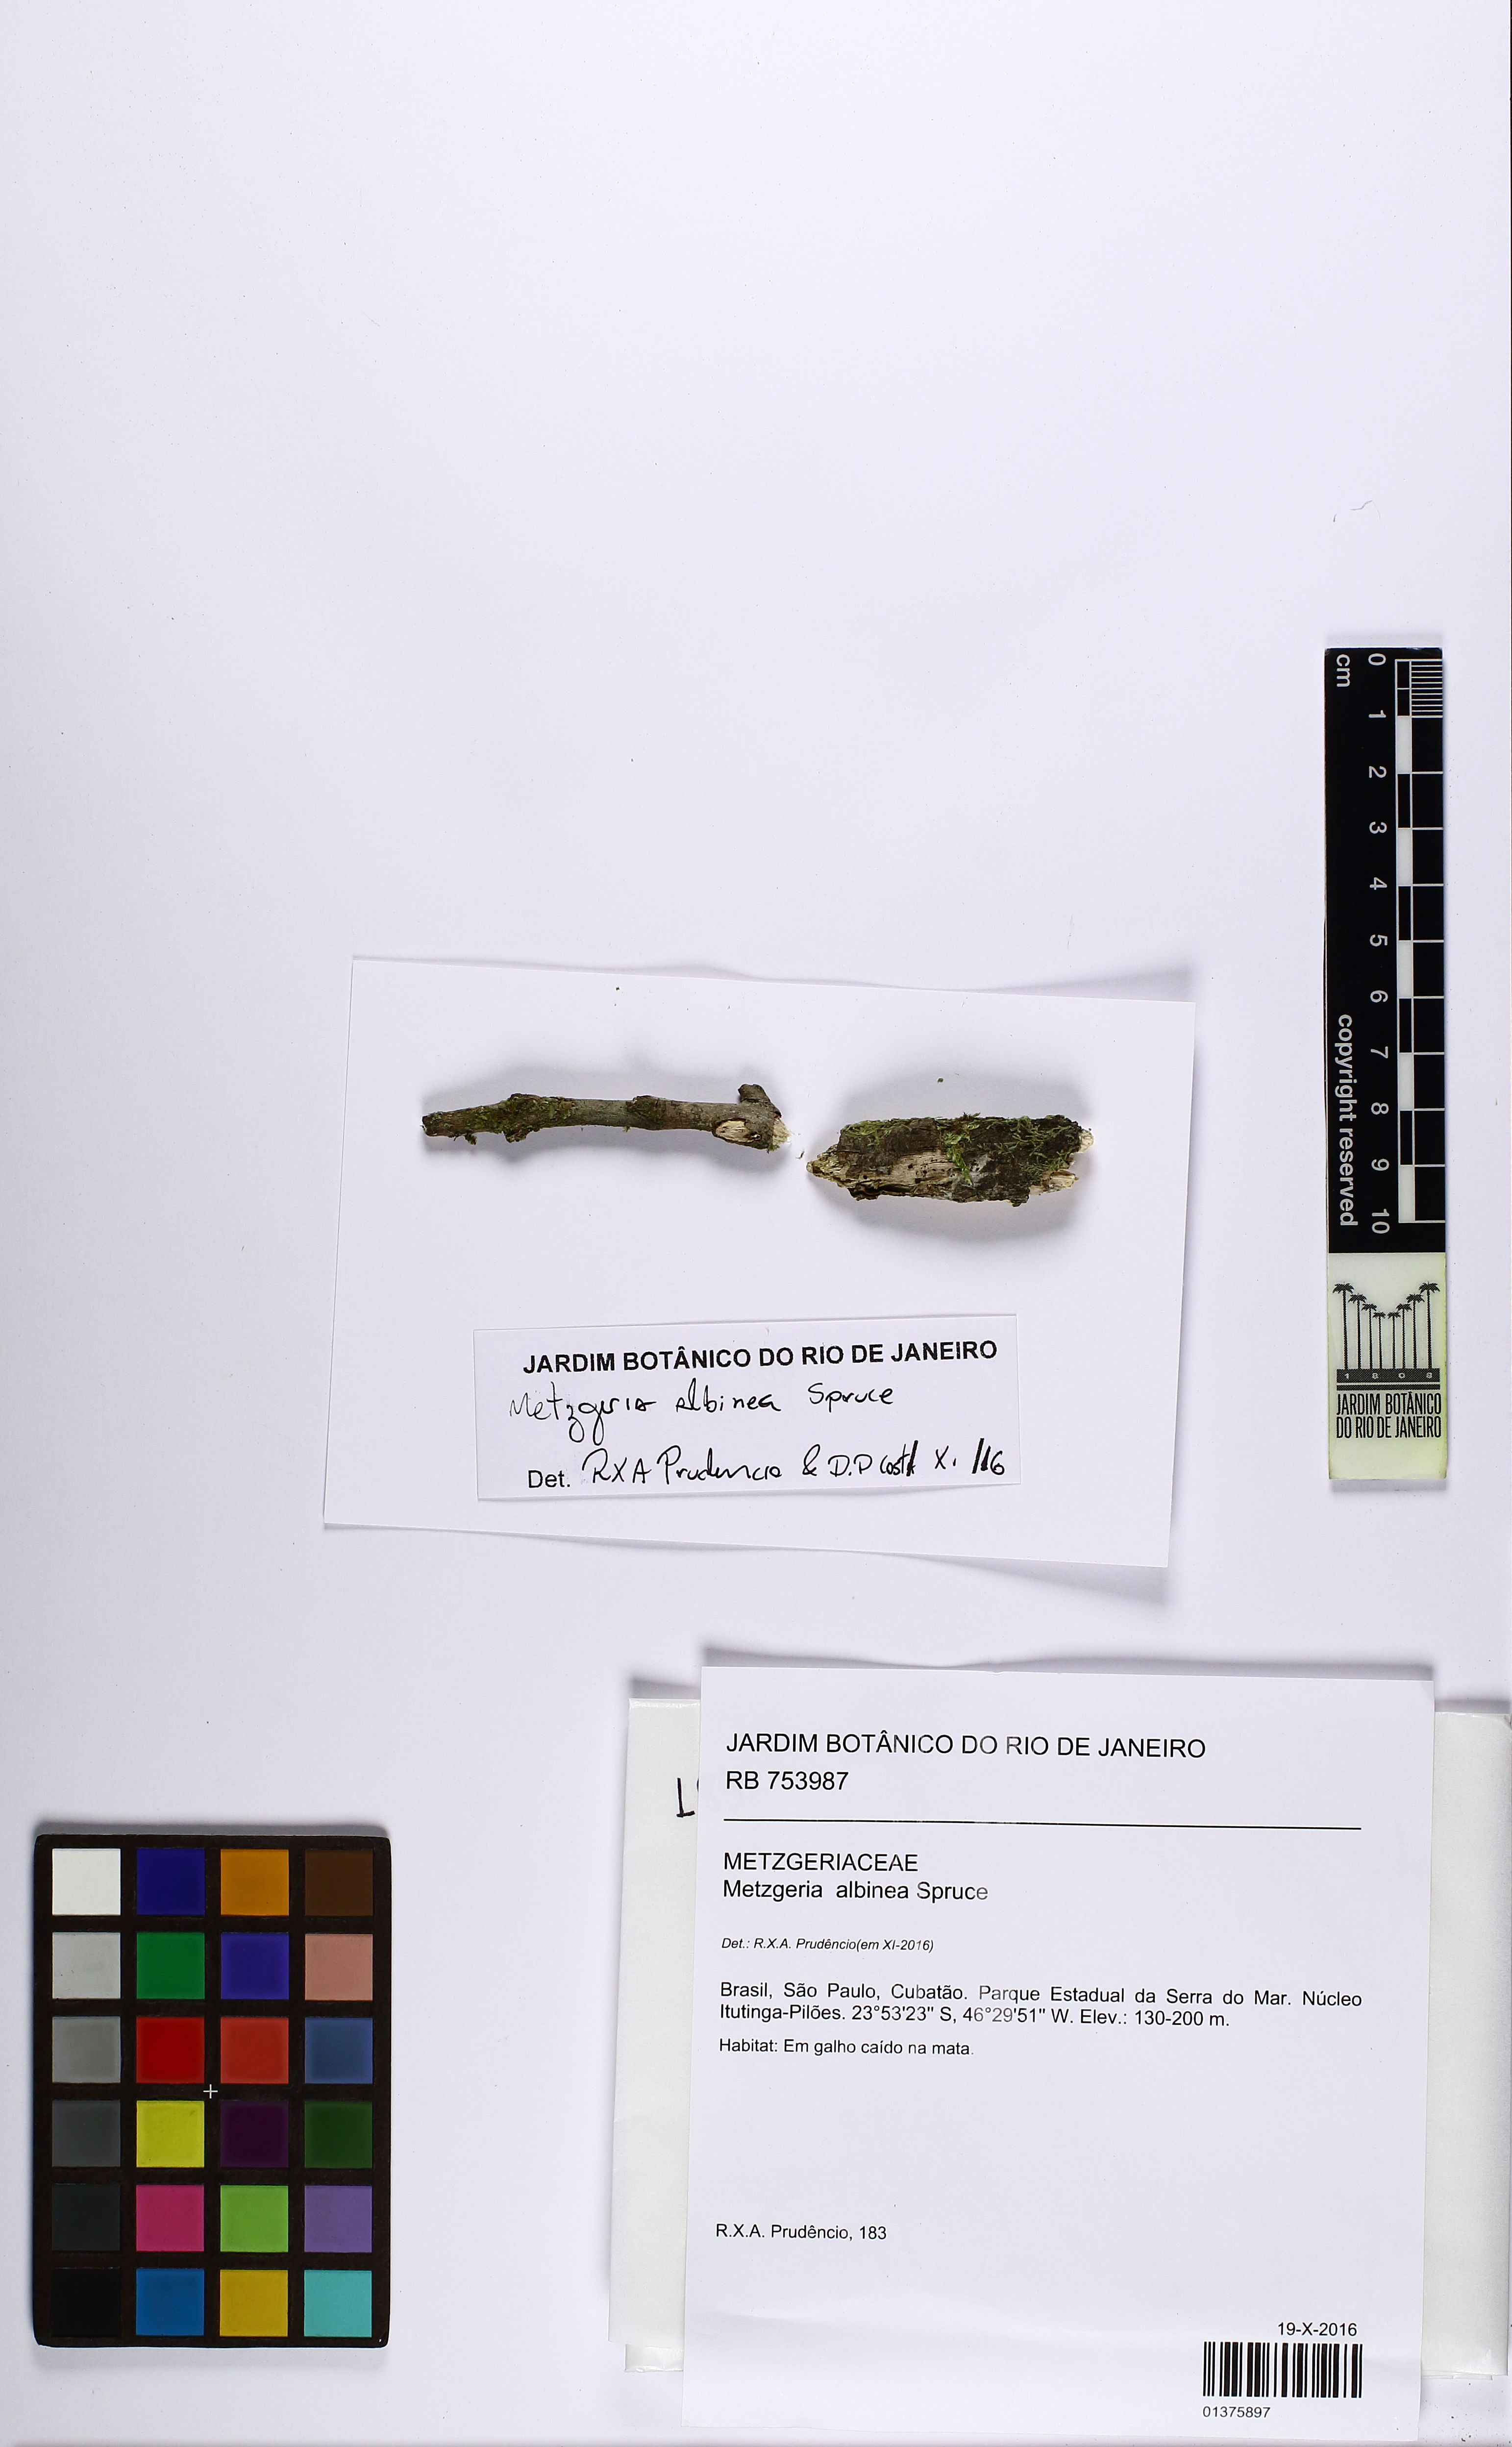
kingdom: Plantae
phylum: Marchantiophyta
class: Jungermanniopsida
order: Metzgeriales
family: Metzgeriaceae
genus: Metzgeria
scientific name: Metzgeria albinea
